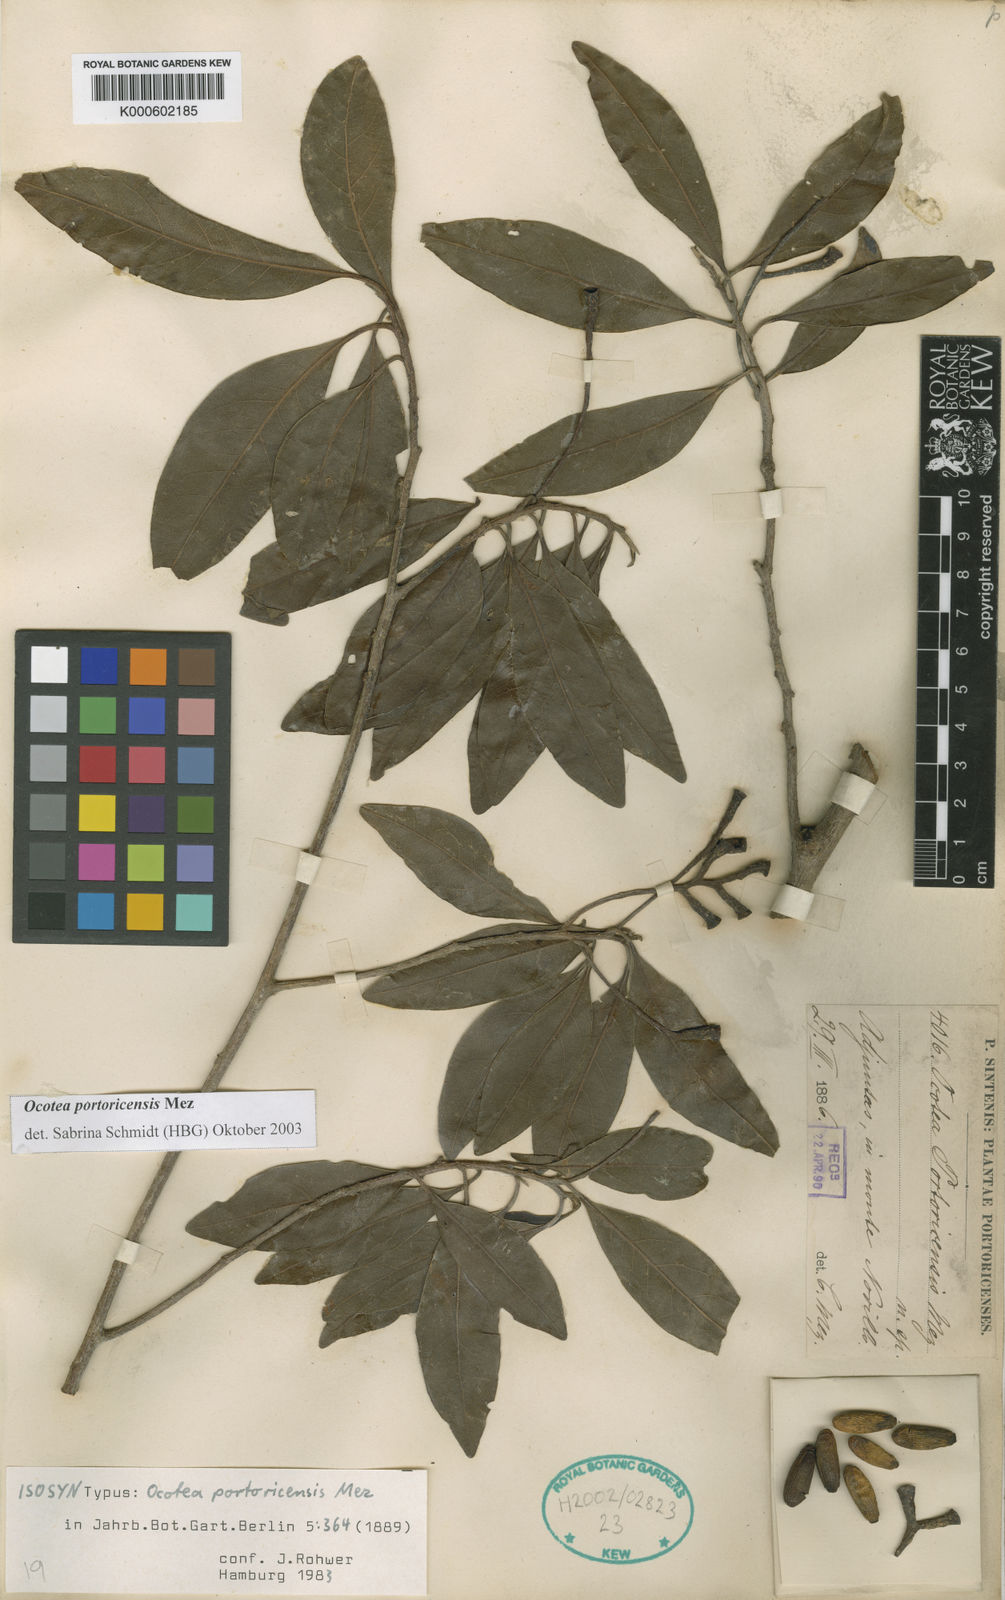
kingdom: Plantae
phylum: Tracheophyta
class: Magnoliopsida
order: Laurales
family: Lauraceae
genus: Ocotea
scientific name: Ocotea portoricensis
